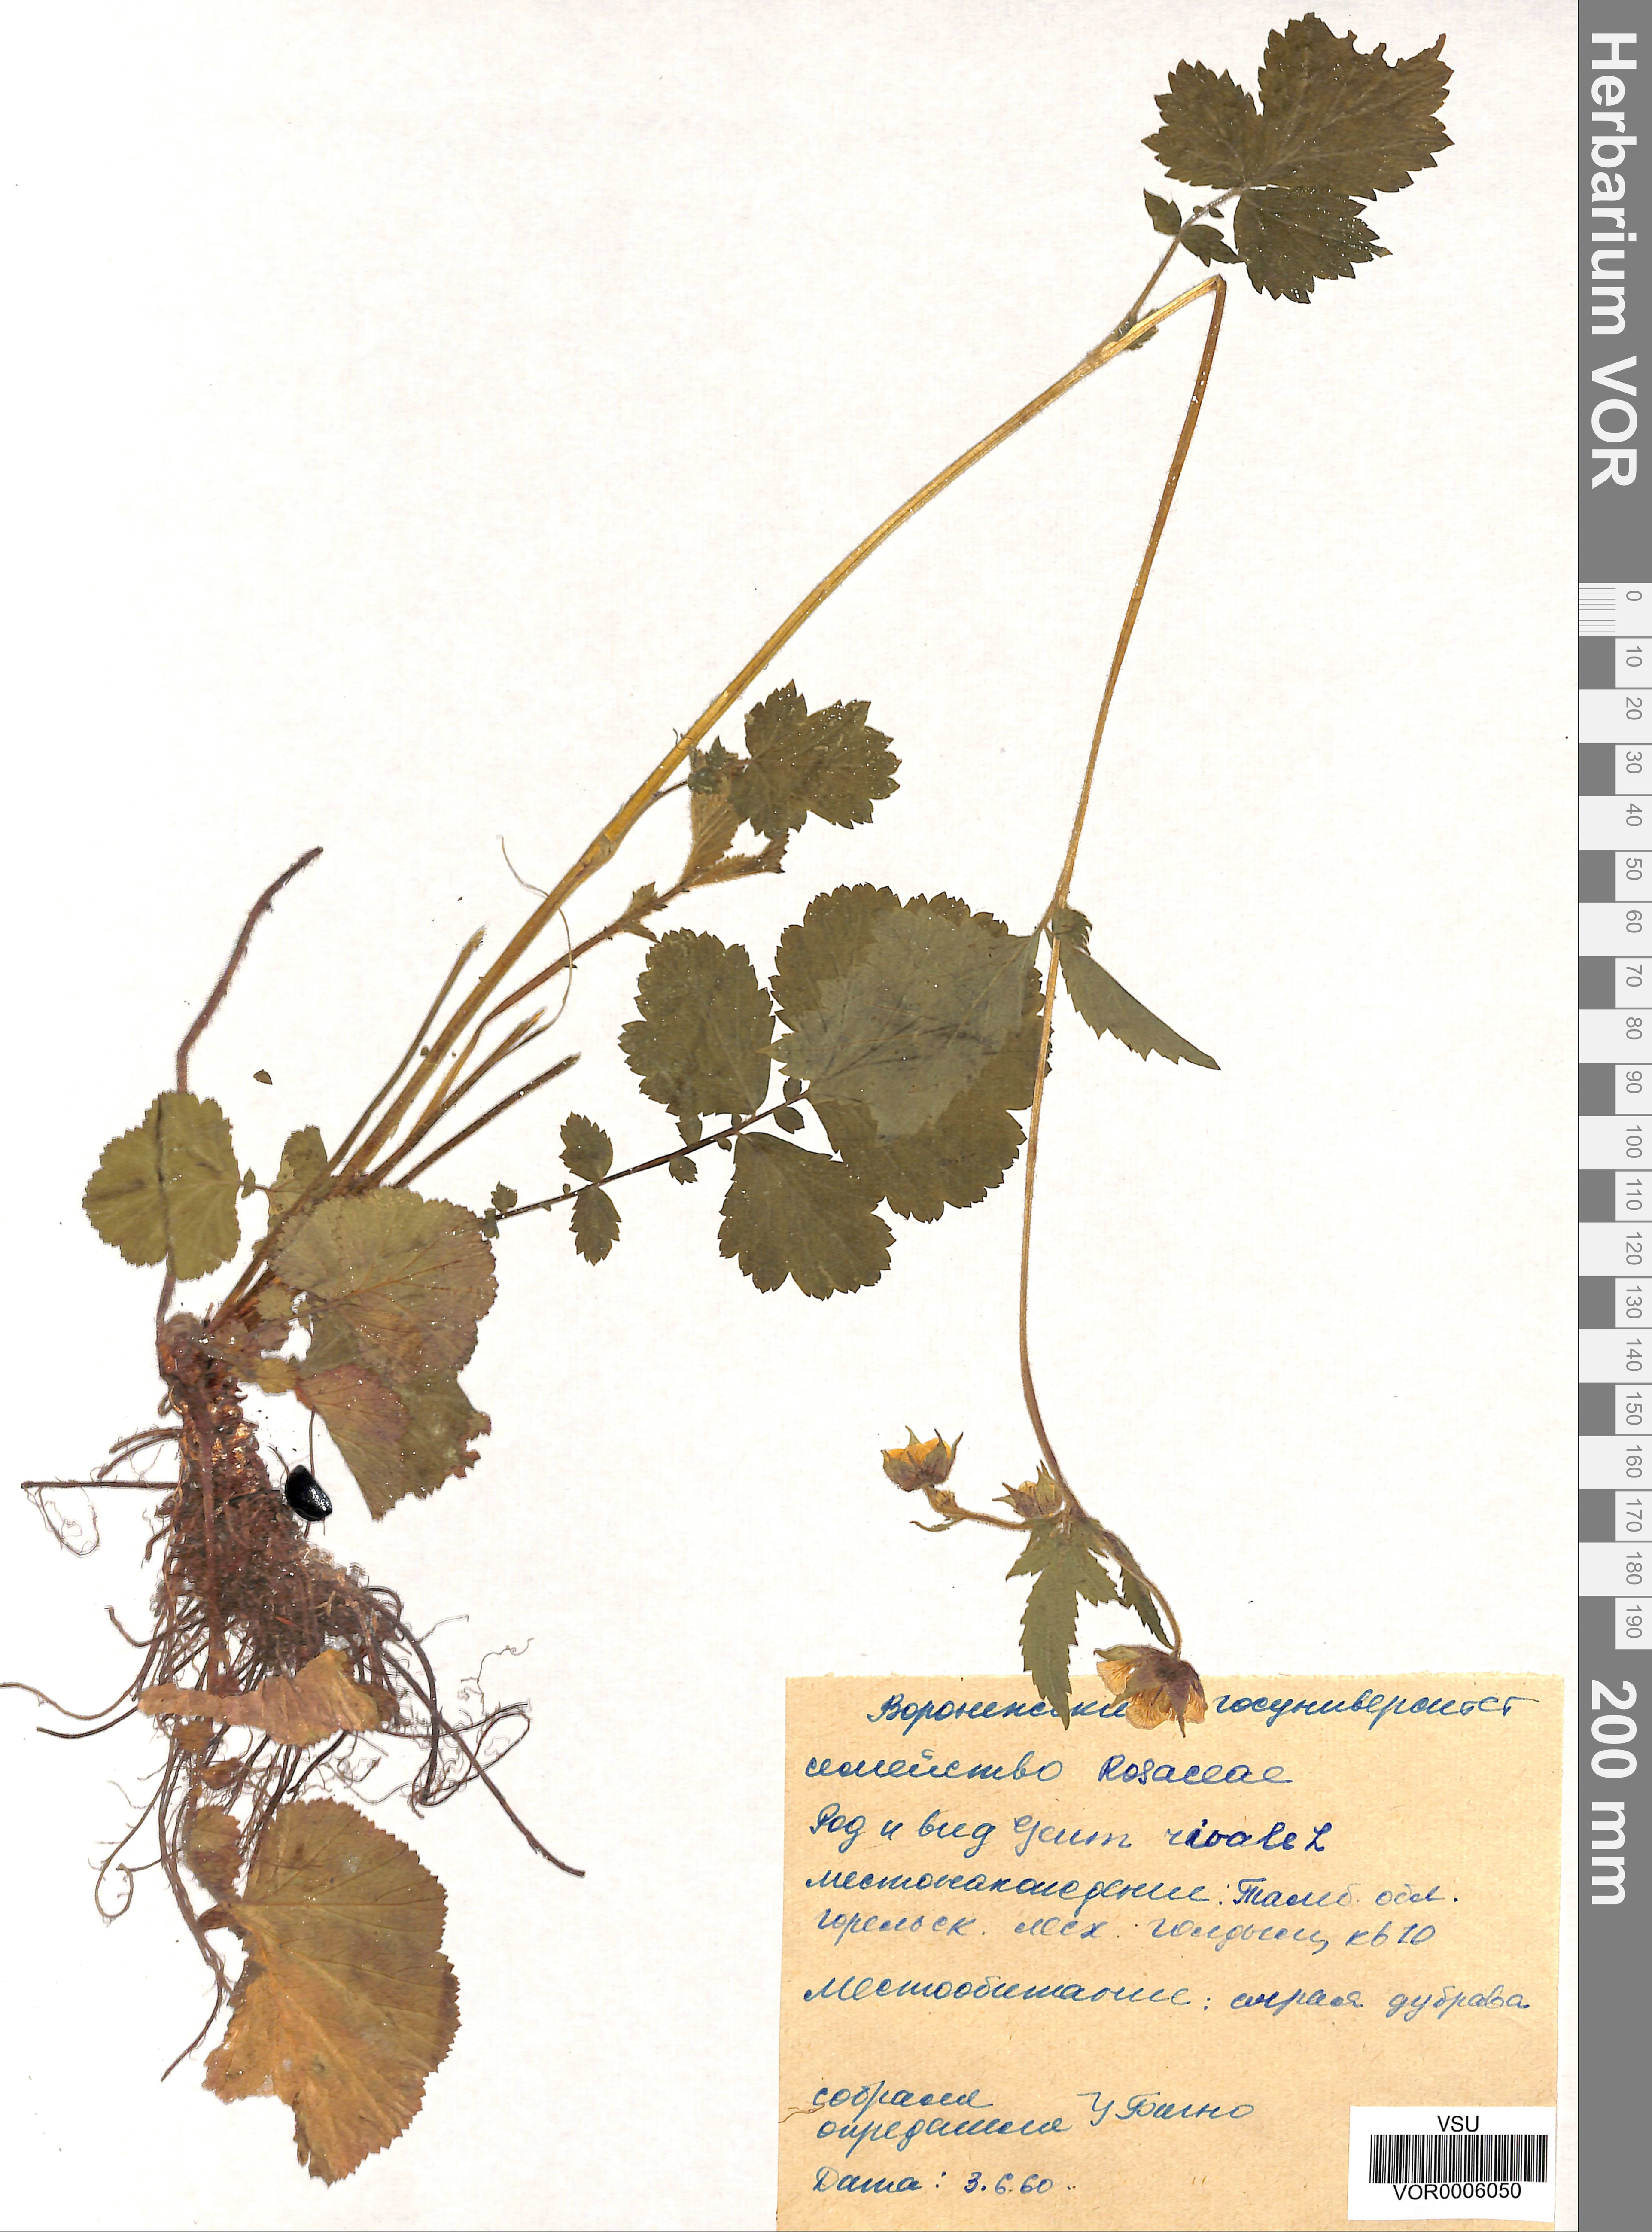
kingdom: Plantae
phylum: Tracheophyta
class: Magnoliopsida
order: Rosales
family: Rosaceae
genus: Geum
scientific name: Geum rivale
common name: Water avens
